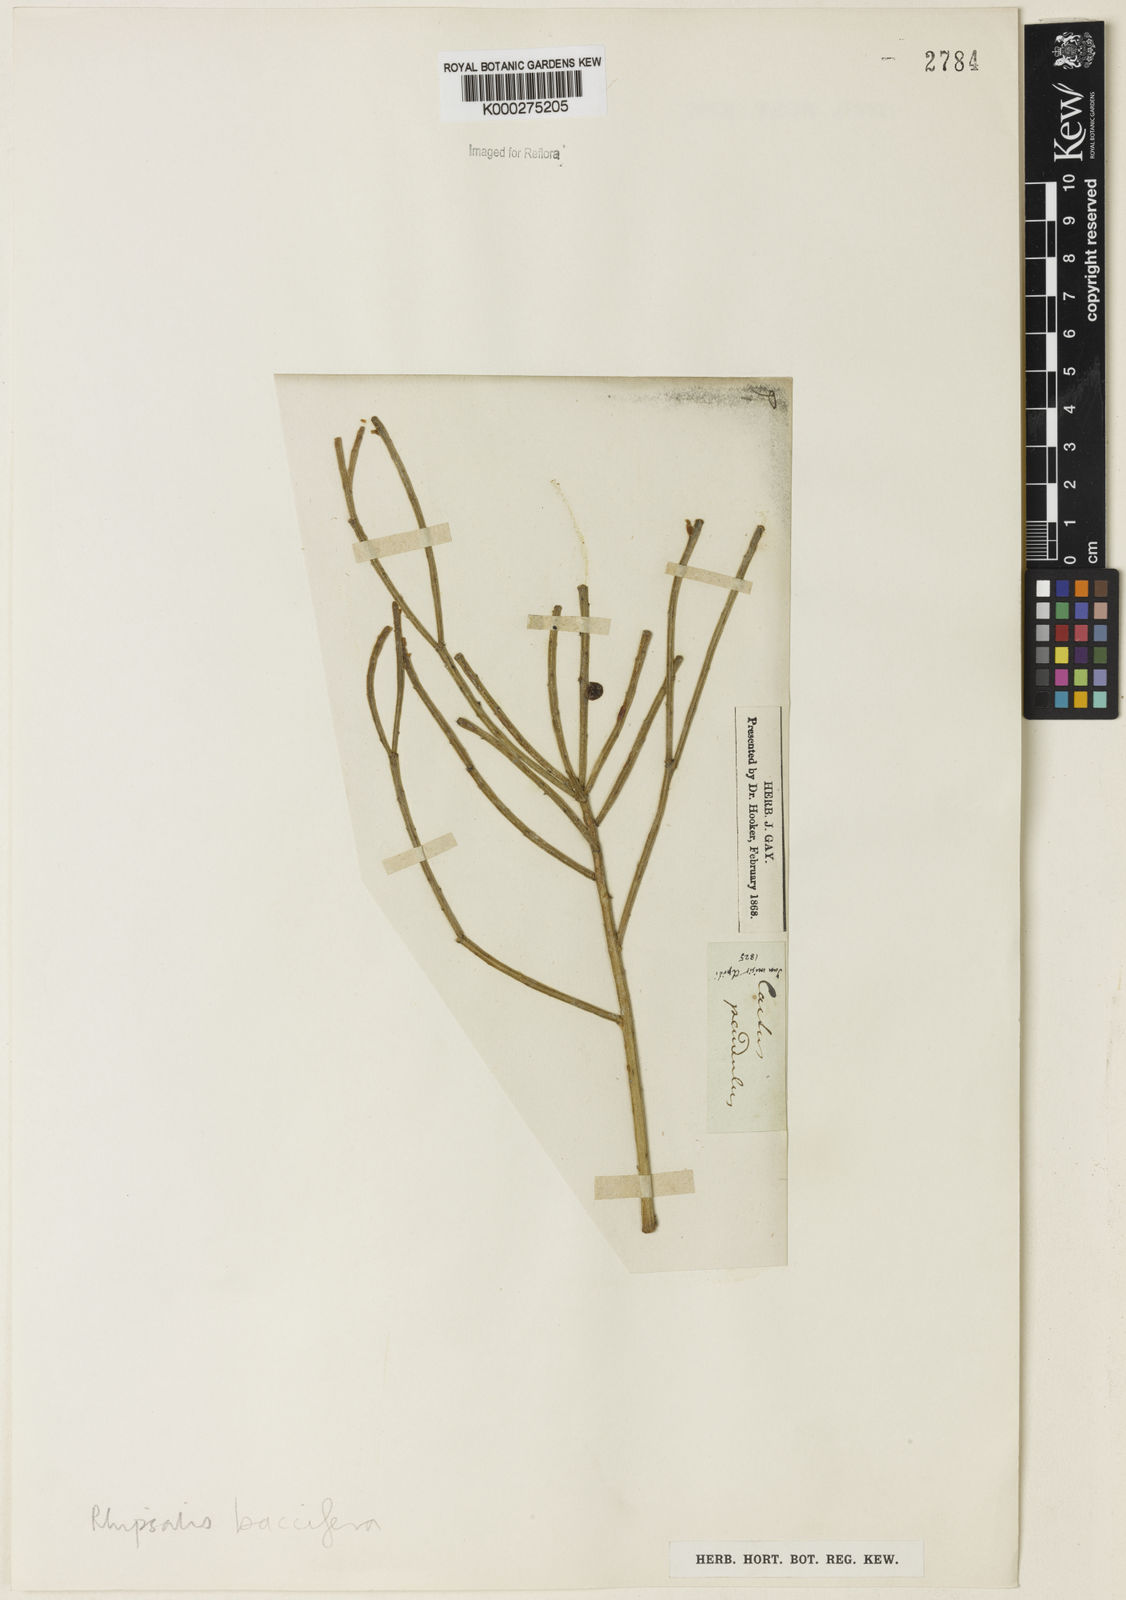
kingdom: Plantae
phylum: Tracheophyta
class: Magnoliopsida
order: Caryophyllales
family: Cactaceae
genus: Rhipsalis
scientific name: Rhipsalis baccifera
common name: Mistletoe cactus
